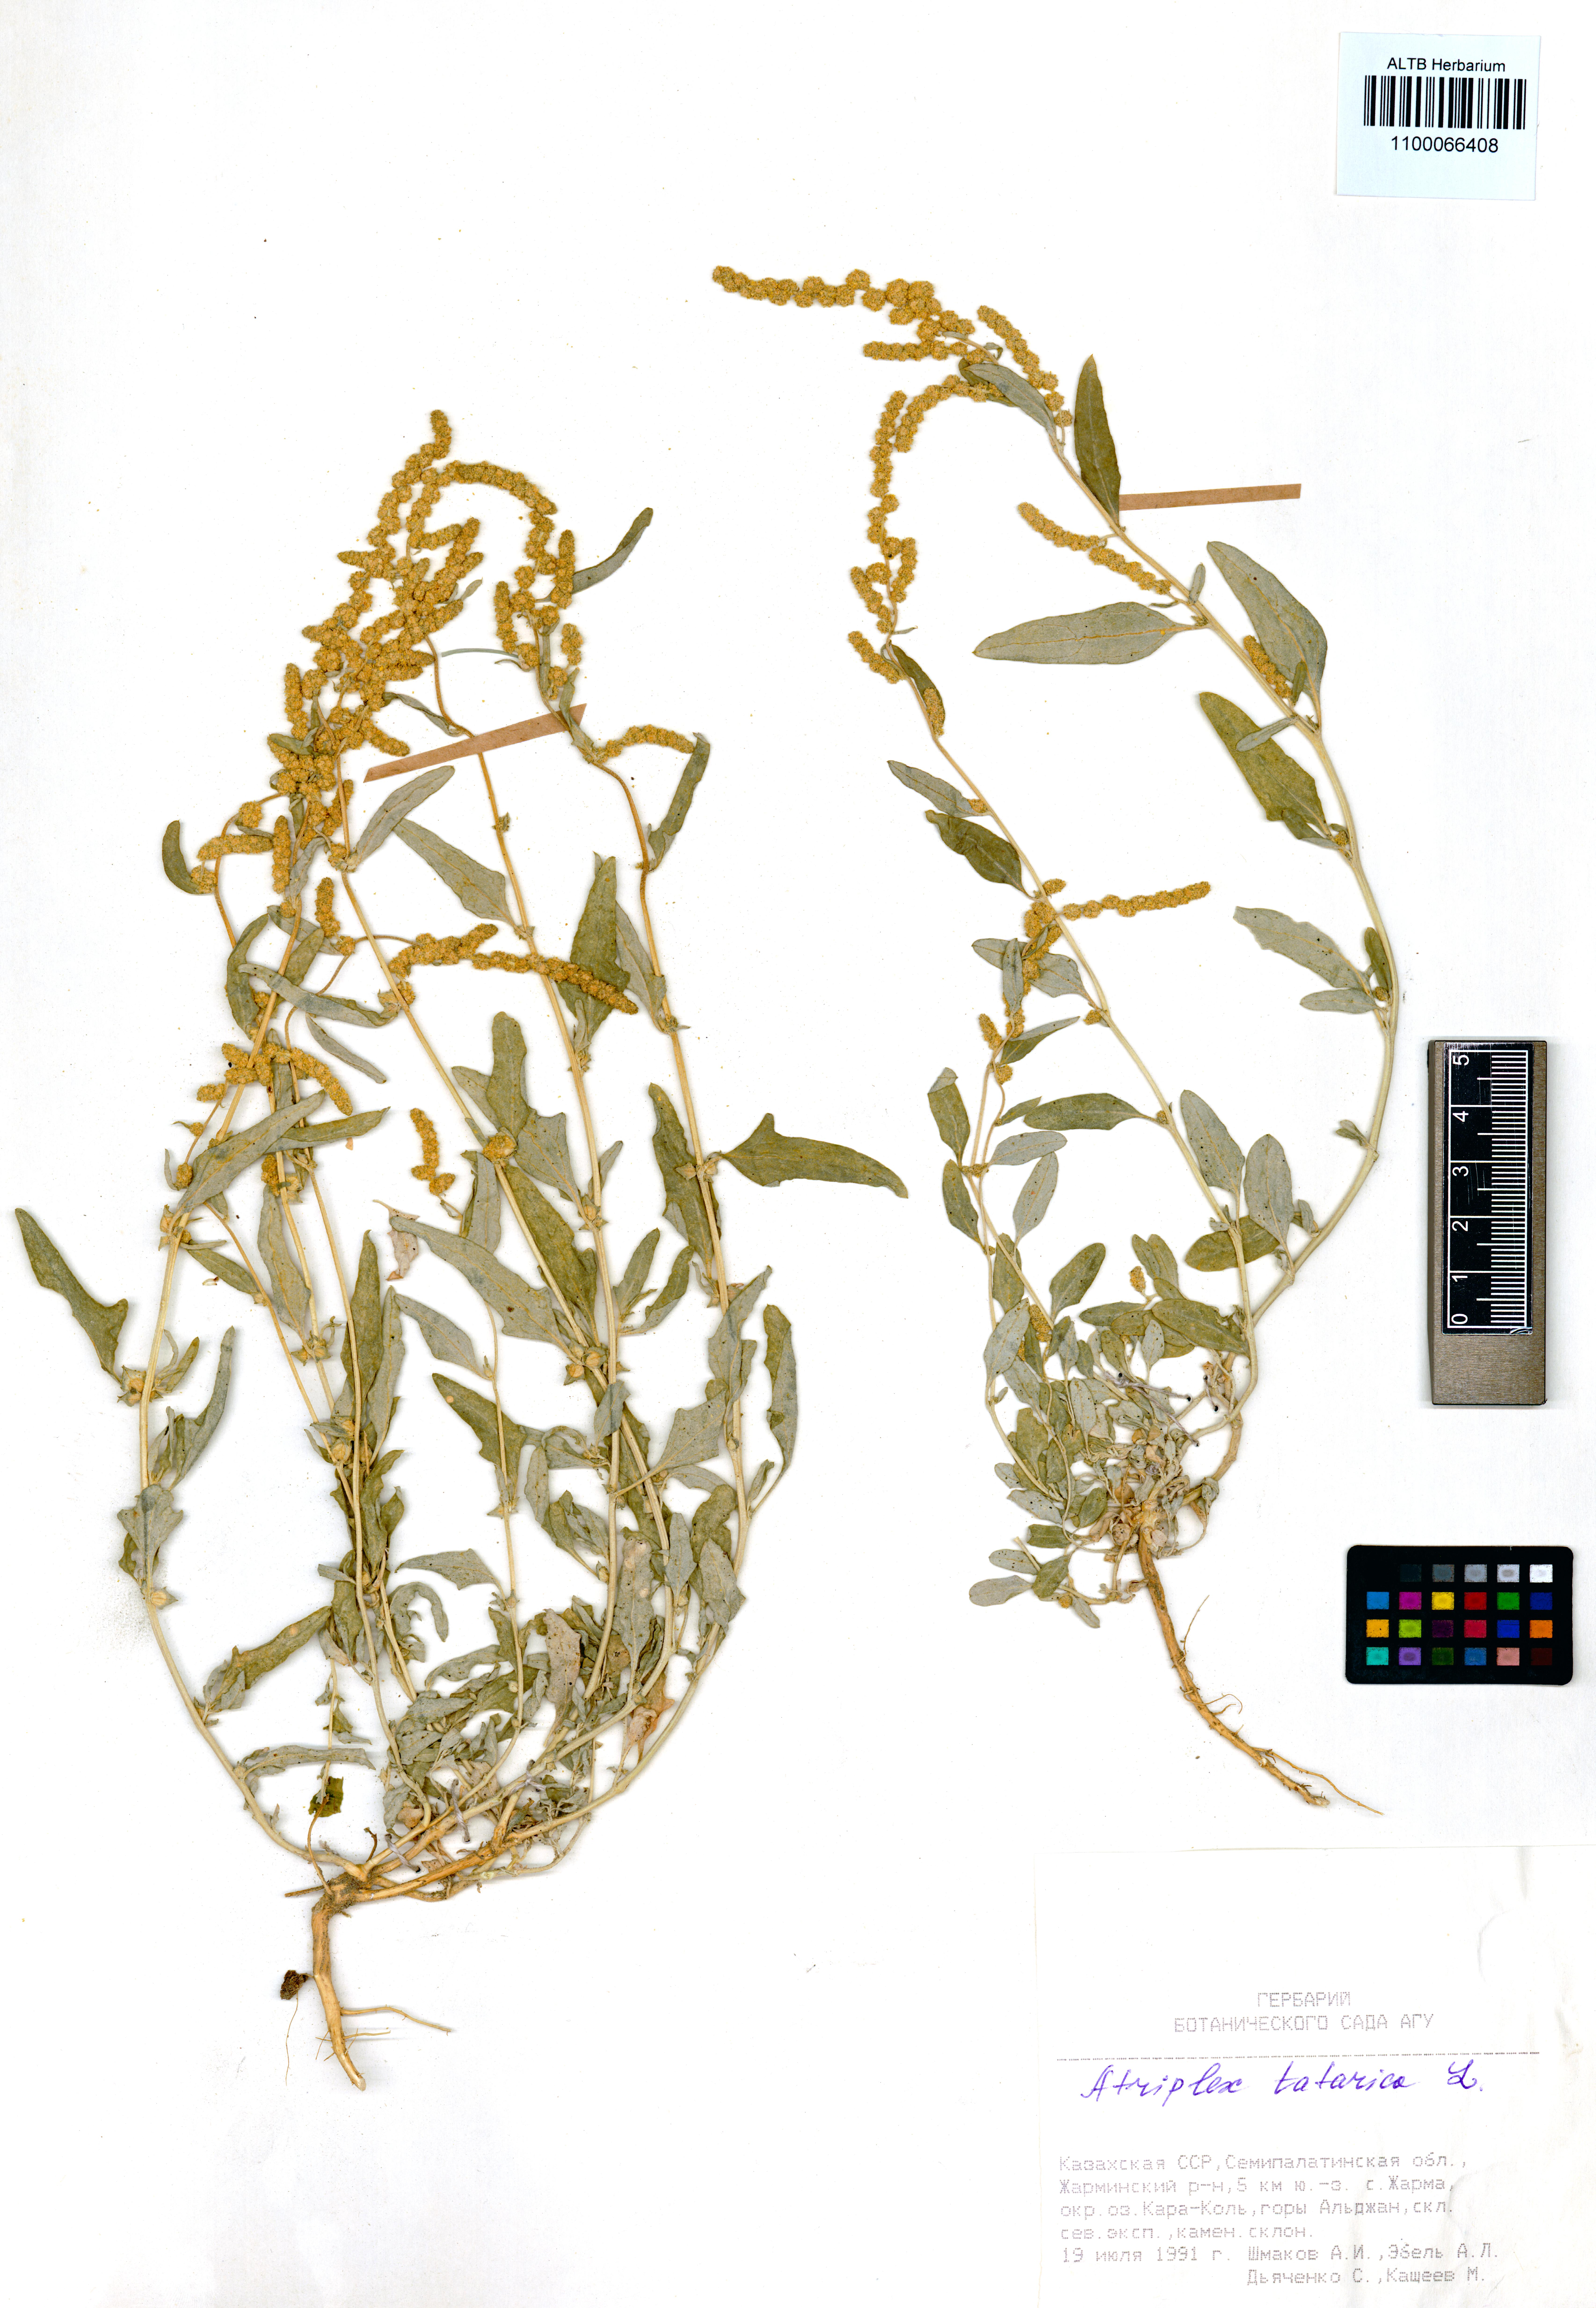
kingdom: Plantae
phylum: Tracheophyta
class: Magnoliopsida
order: Caryophyllales
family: Amaranthaceae
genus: Atriplex
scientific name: Atriplex tatarica
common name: Tatarian orache
